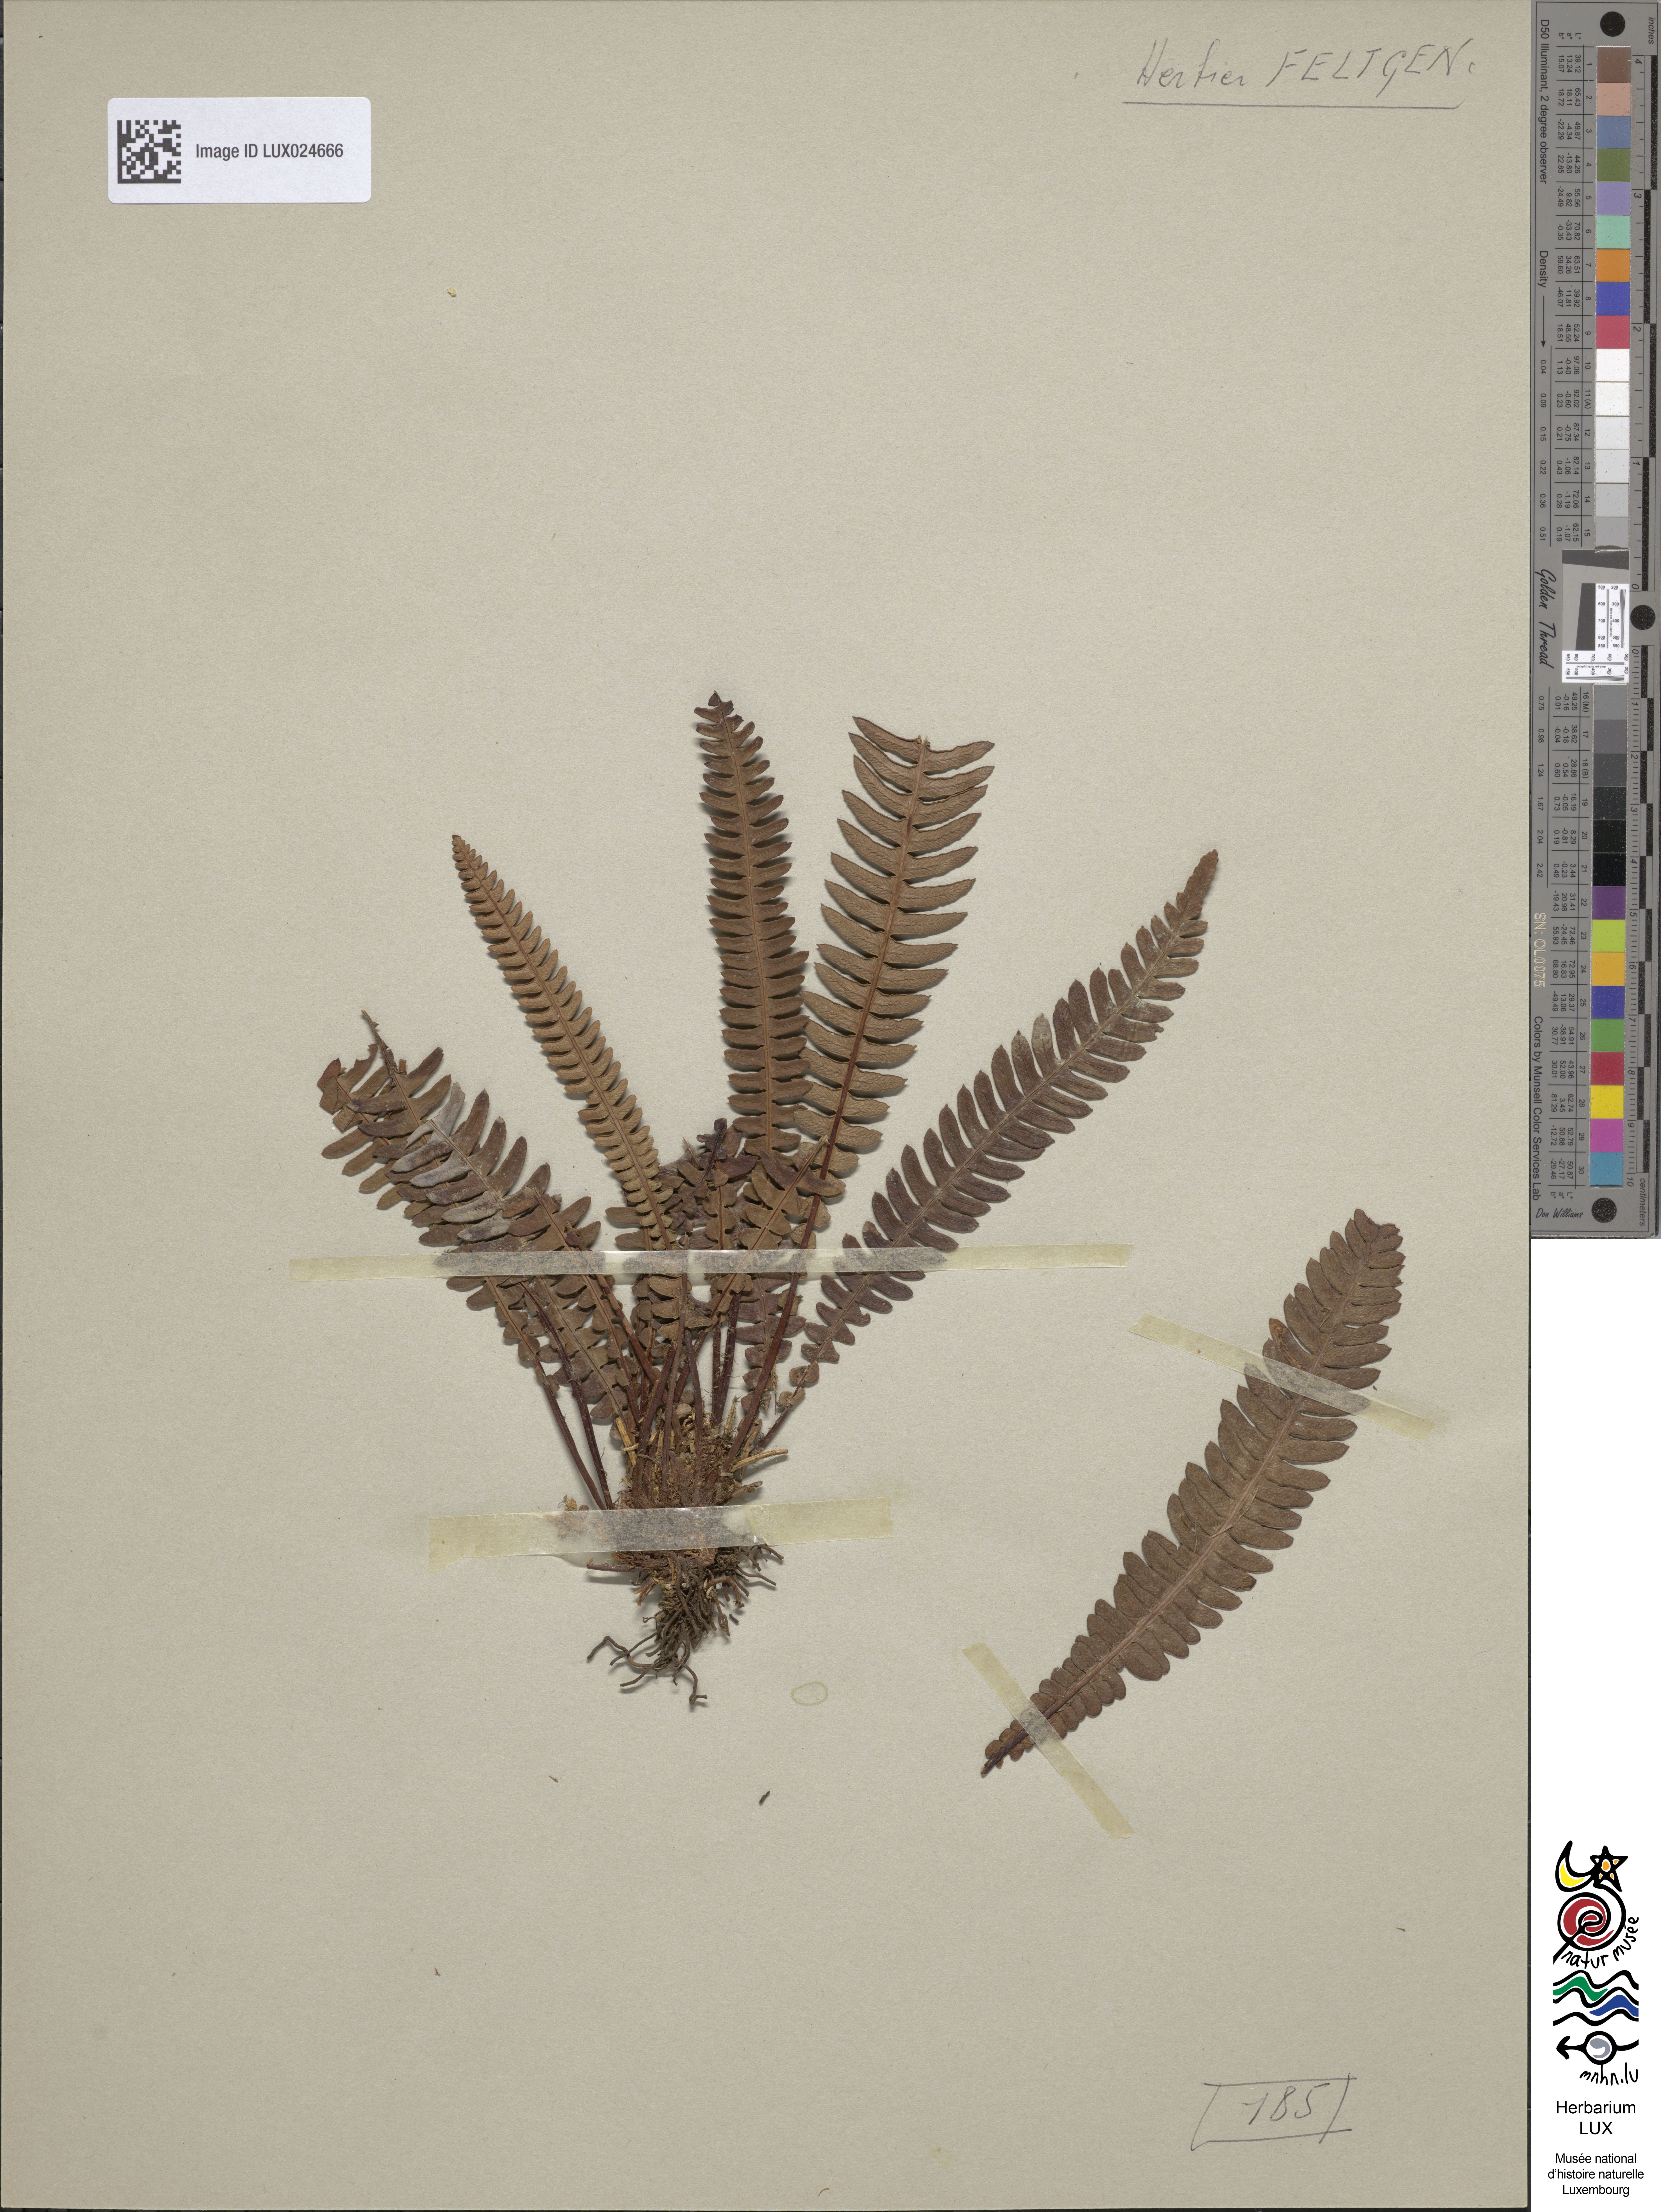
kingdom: Plantae
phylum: Tracheophyta
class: Polypodiopsida
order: Polypodiales
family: Blechnaceae
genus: Struthiopteris
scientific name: Struthiopteris spicant
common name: Deer fern
